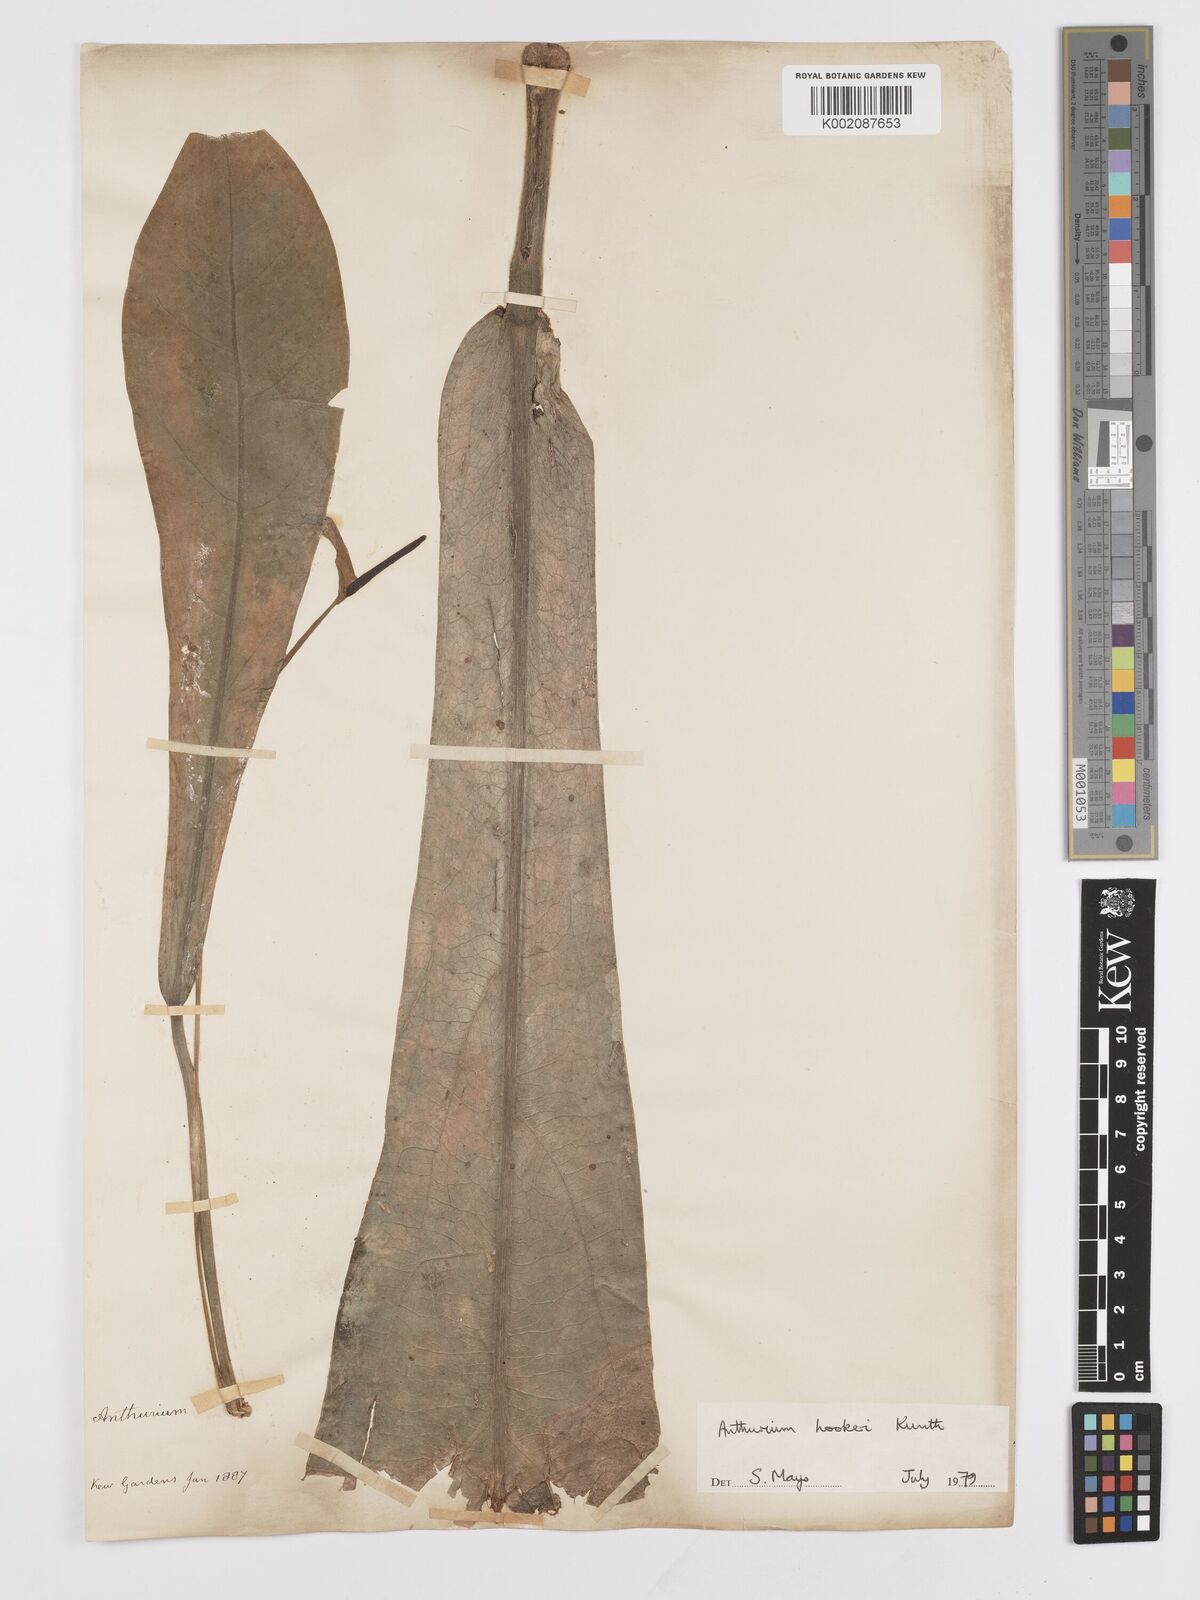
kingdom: Plantae
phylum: Tracheophyta
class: Liliopsida
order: Alismatales
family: Araceae
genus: Anthurium
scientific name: Anthurium hookeri
